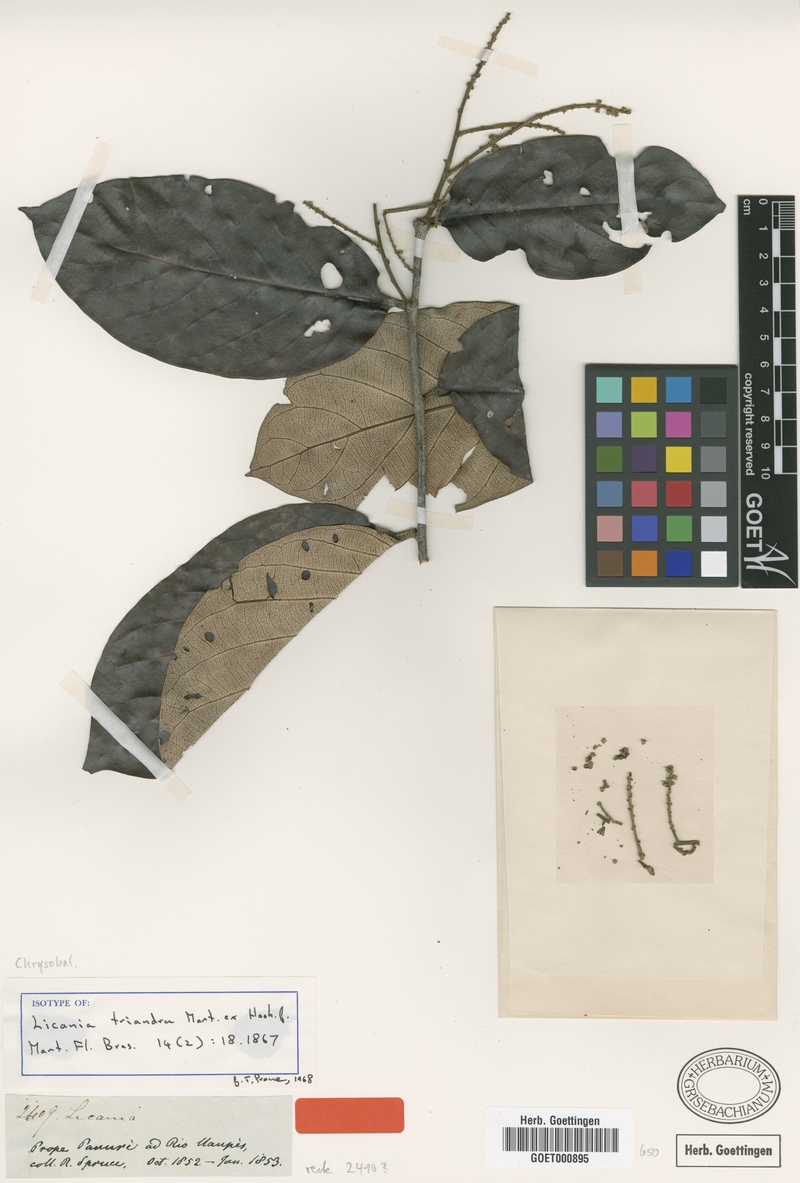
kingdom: Plantae
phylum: Tracheophyta
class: Magnoliopsida
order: Malpighiales
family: Chrysobalanaceae
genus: Licania
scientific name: Licania triandra
